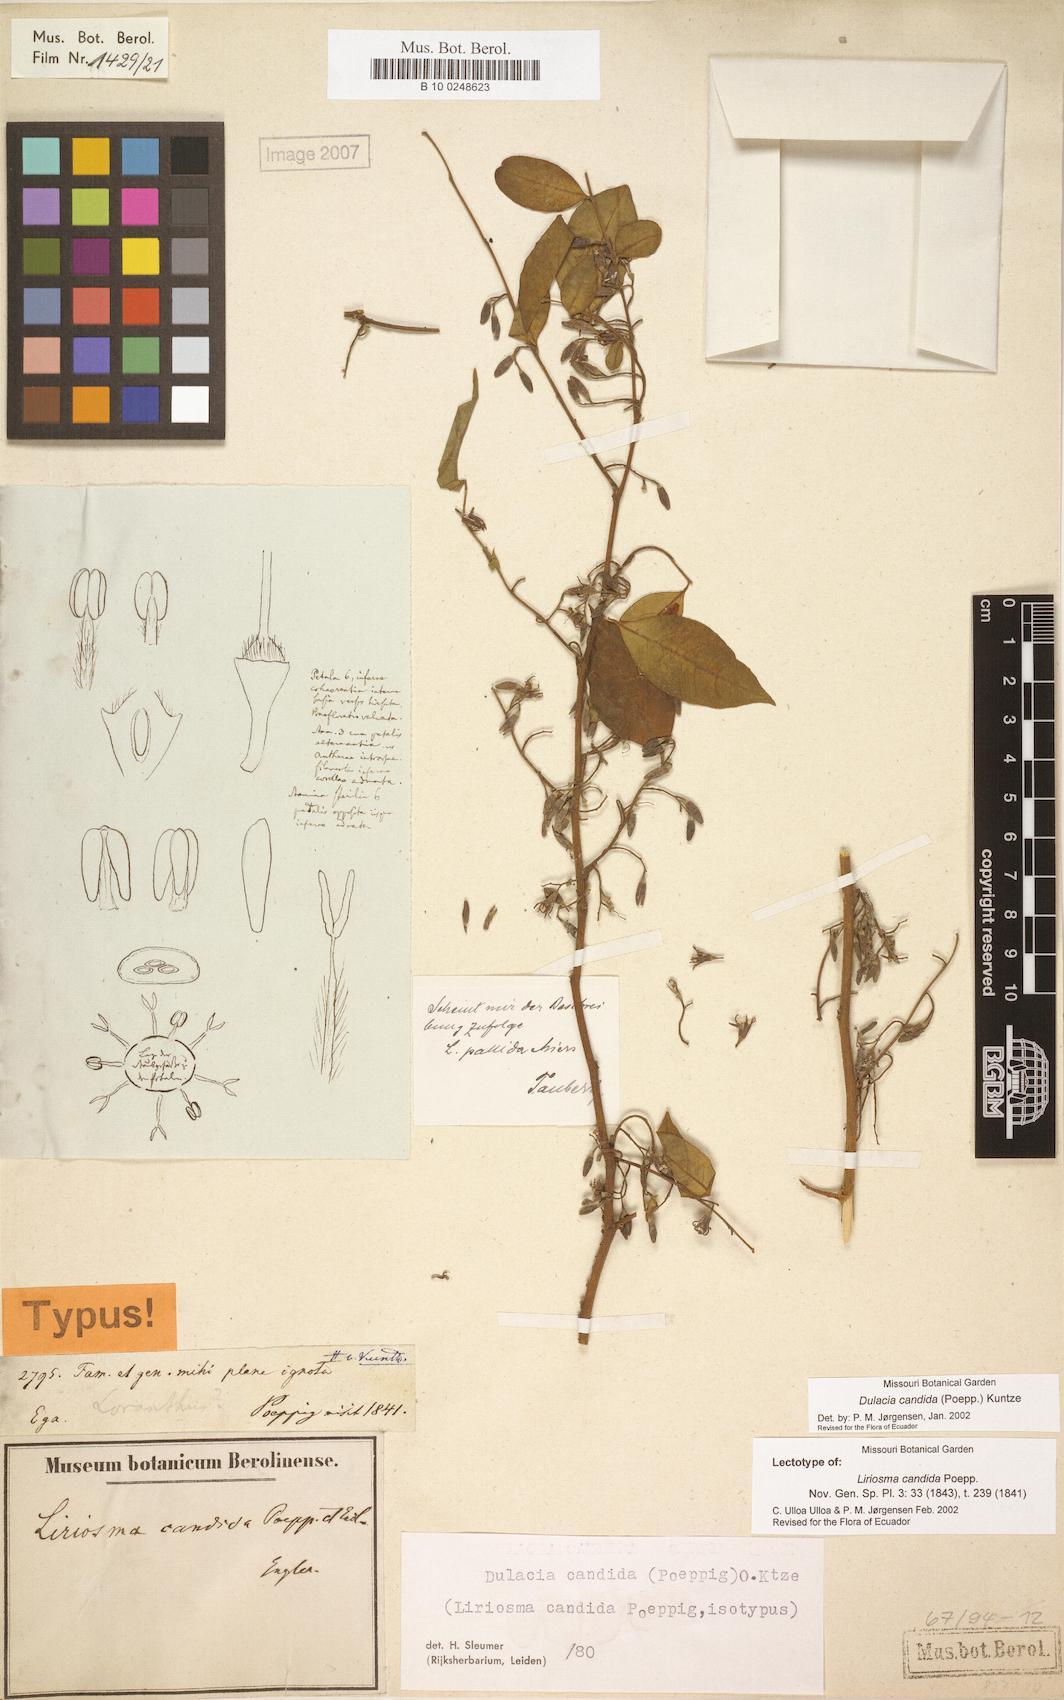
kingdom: Plantae
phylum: Tracheophyta
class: Magnoliopsida
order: Santalales
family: Olacaceae
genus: Dulacia
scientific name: Dulacia candida
